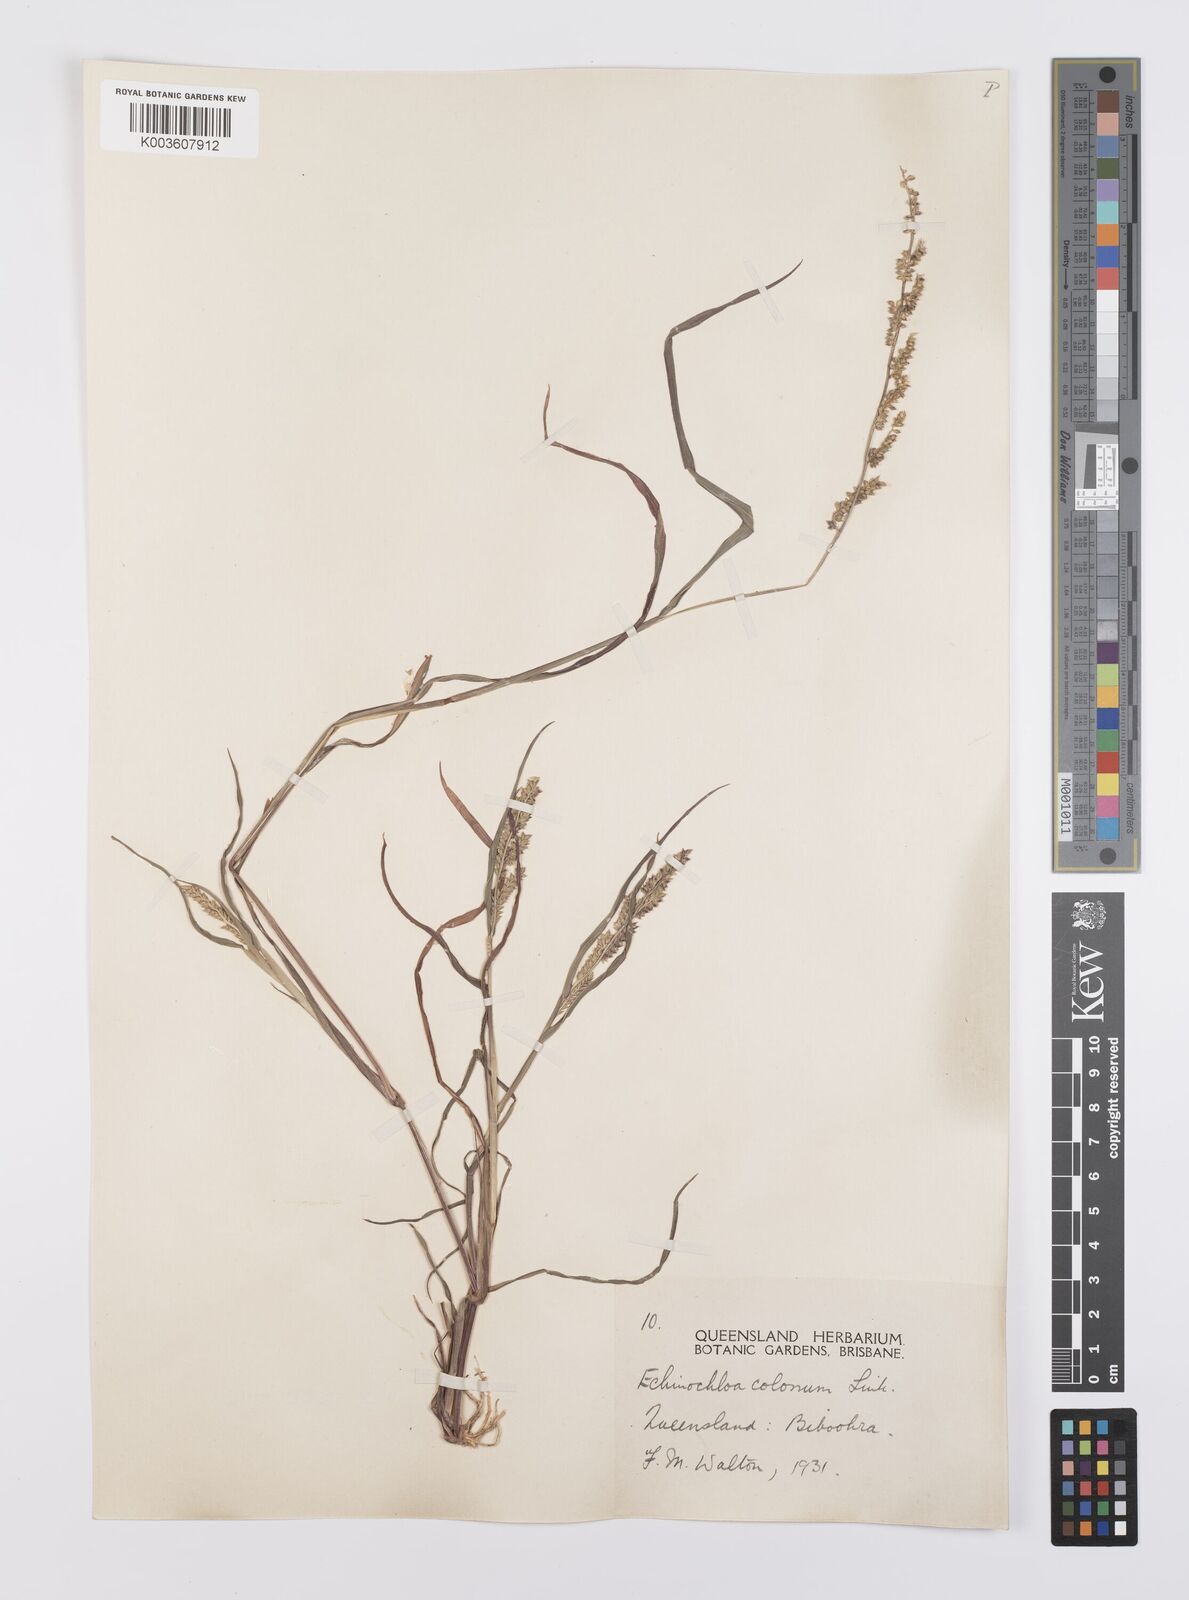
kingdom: Plantae
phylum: Tracheophyta
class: Liliopsida
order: Poales
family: Poaceae
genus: Echinochloa
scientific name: Echinochloa colonum
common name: Jungle rice
